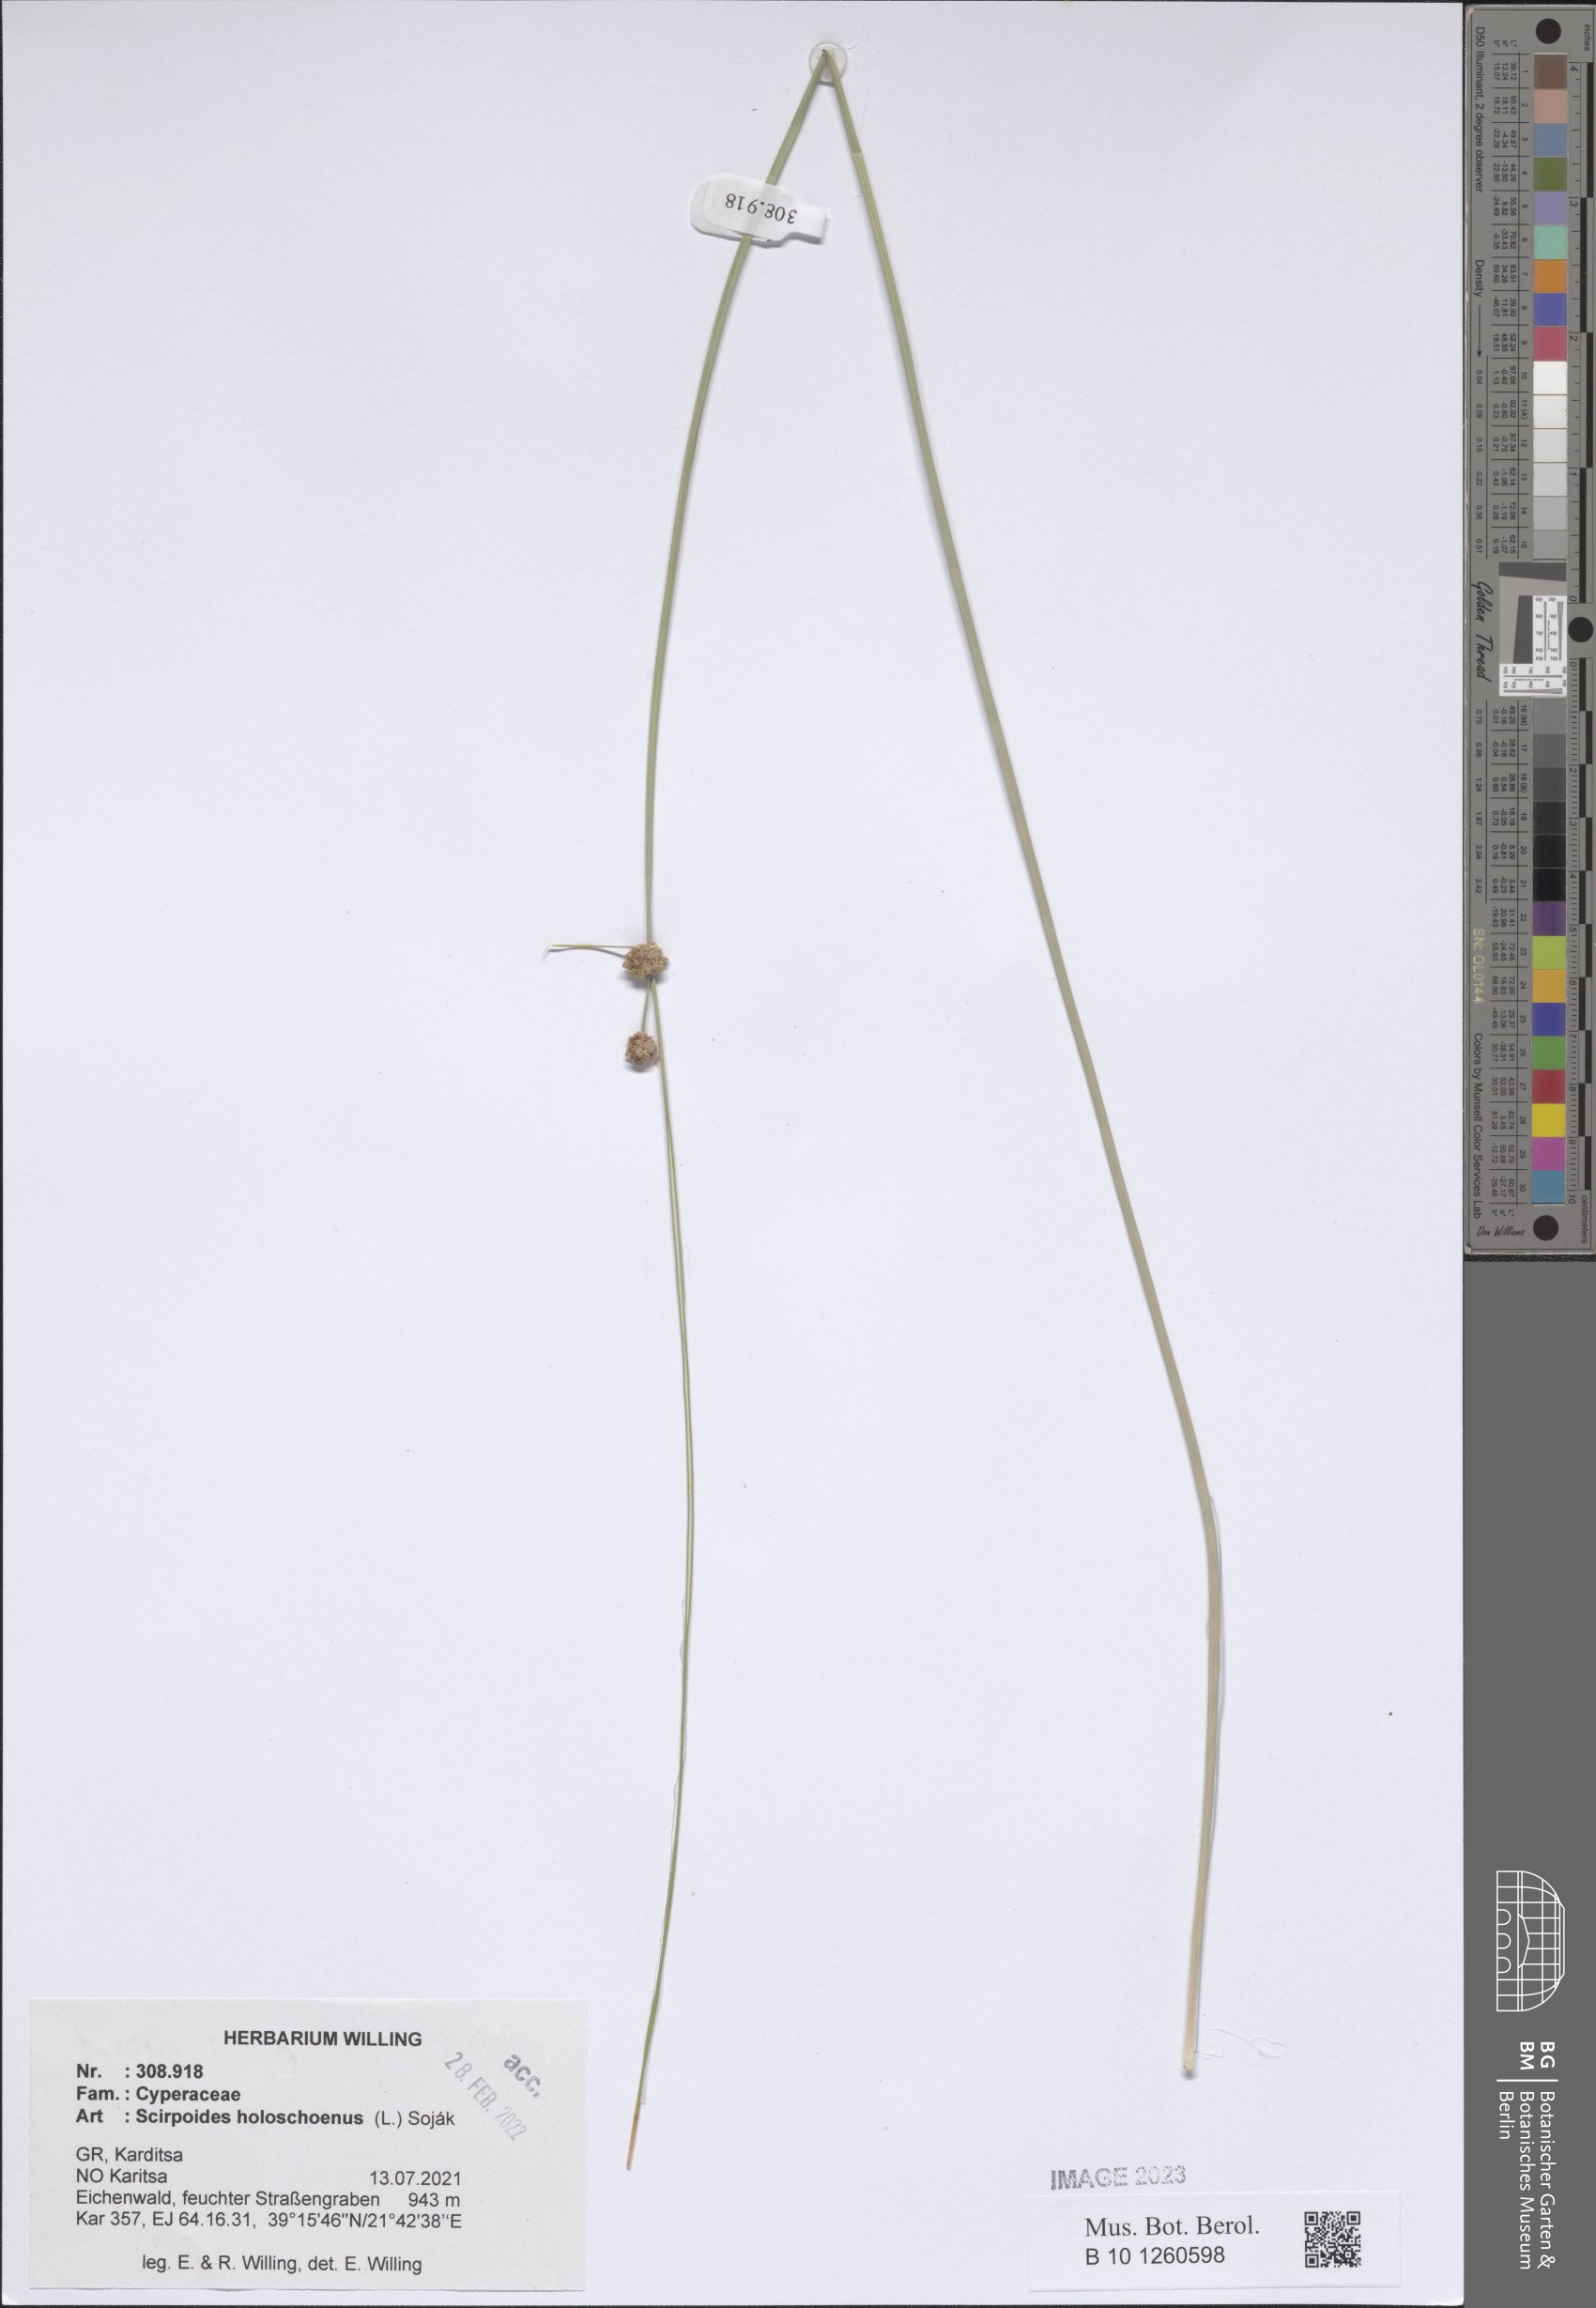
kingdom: Plantae
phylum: Tracheophyta
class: Liliopsida
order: Poales
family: Cyperaceae
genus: Scirpoides
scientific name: Scirpoides
